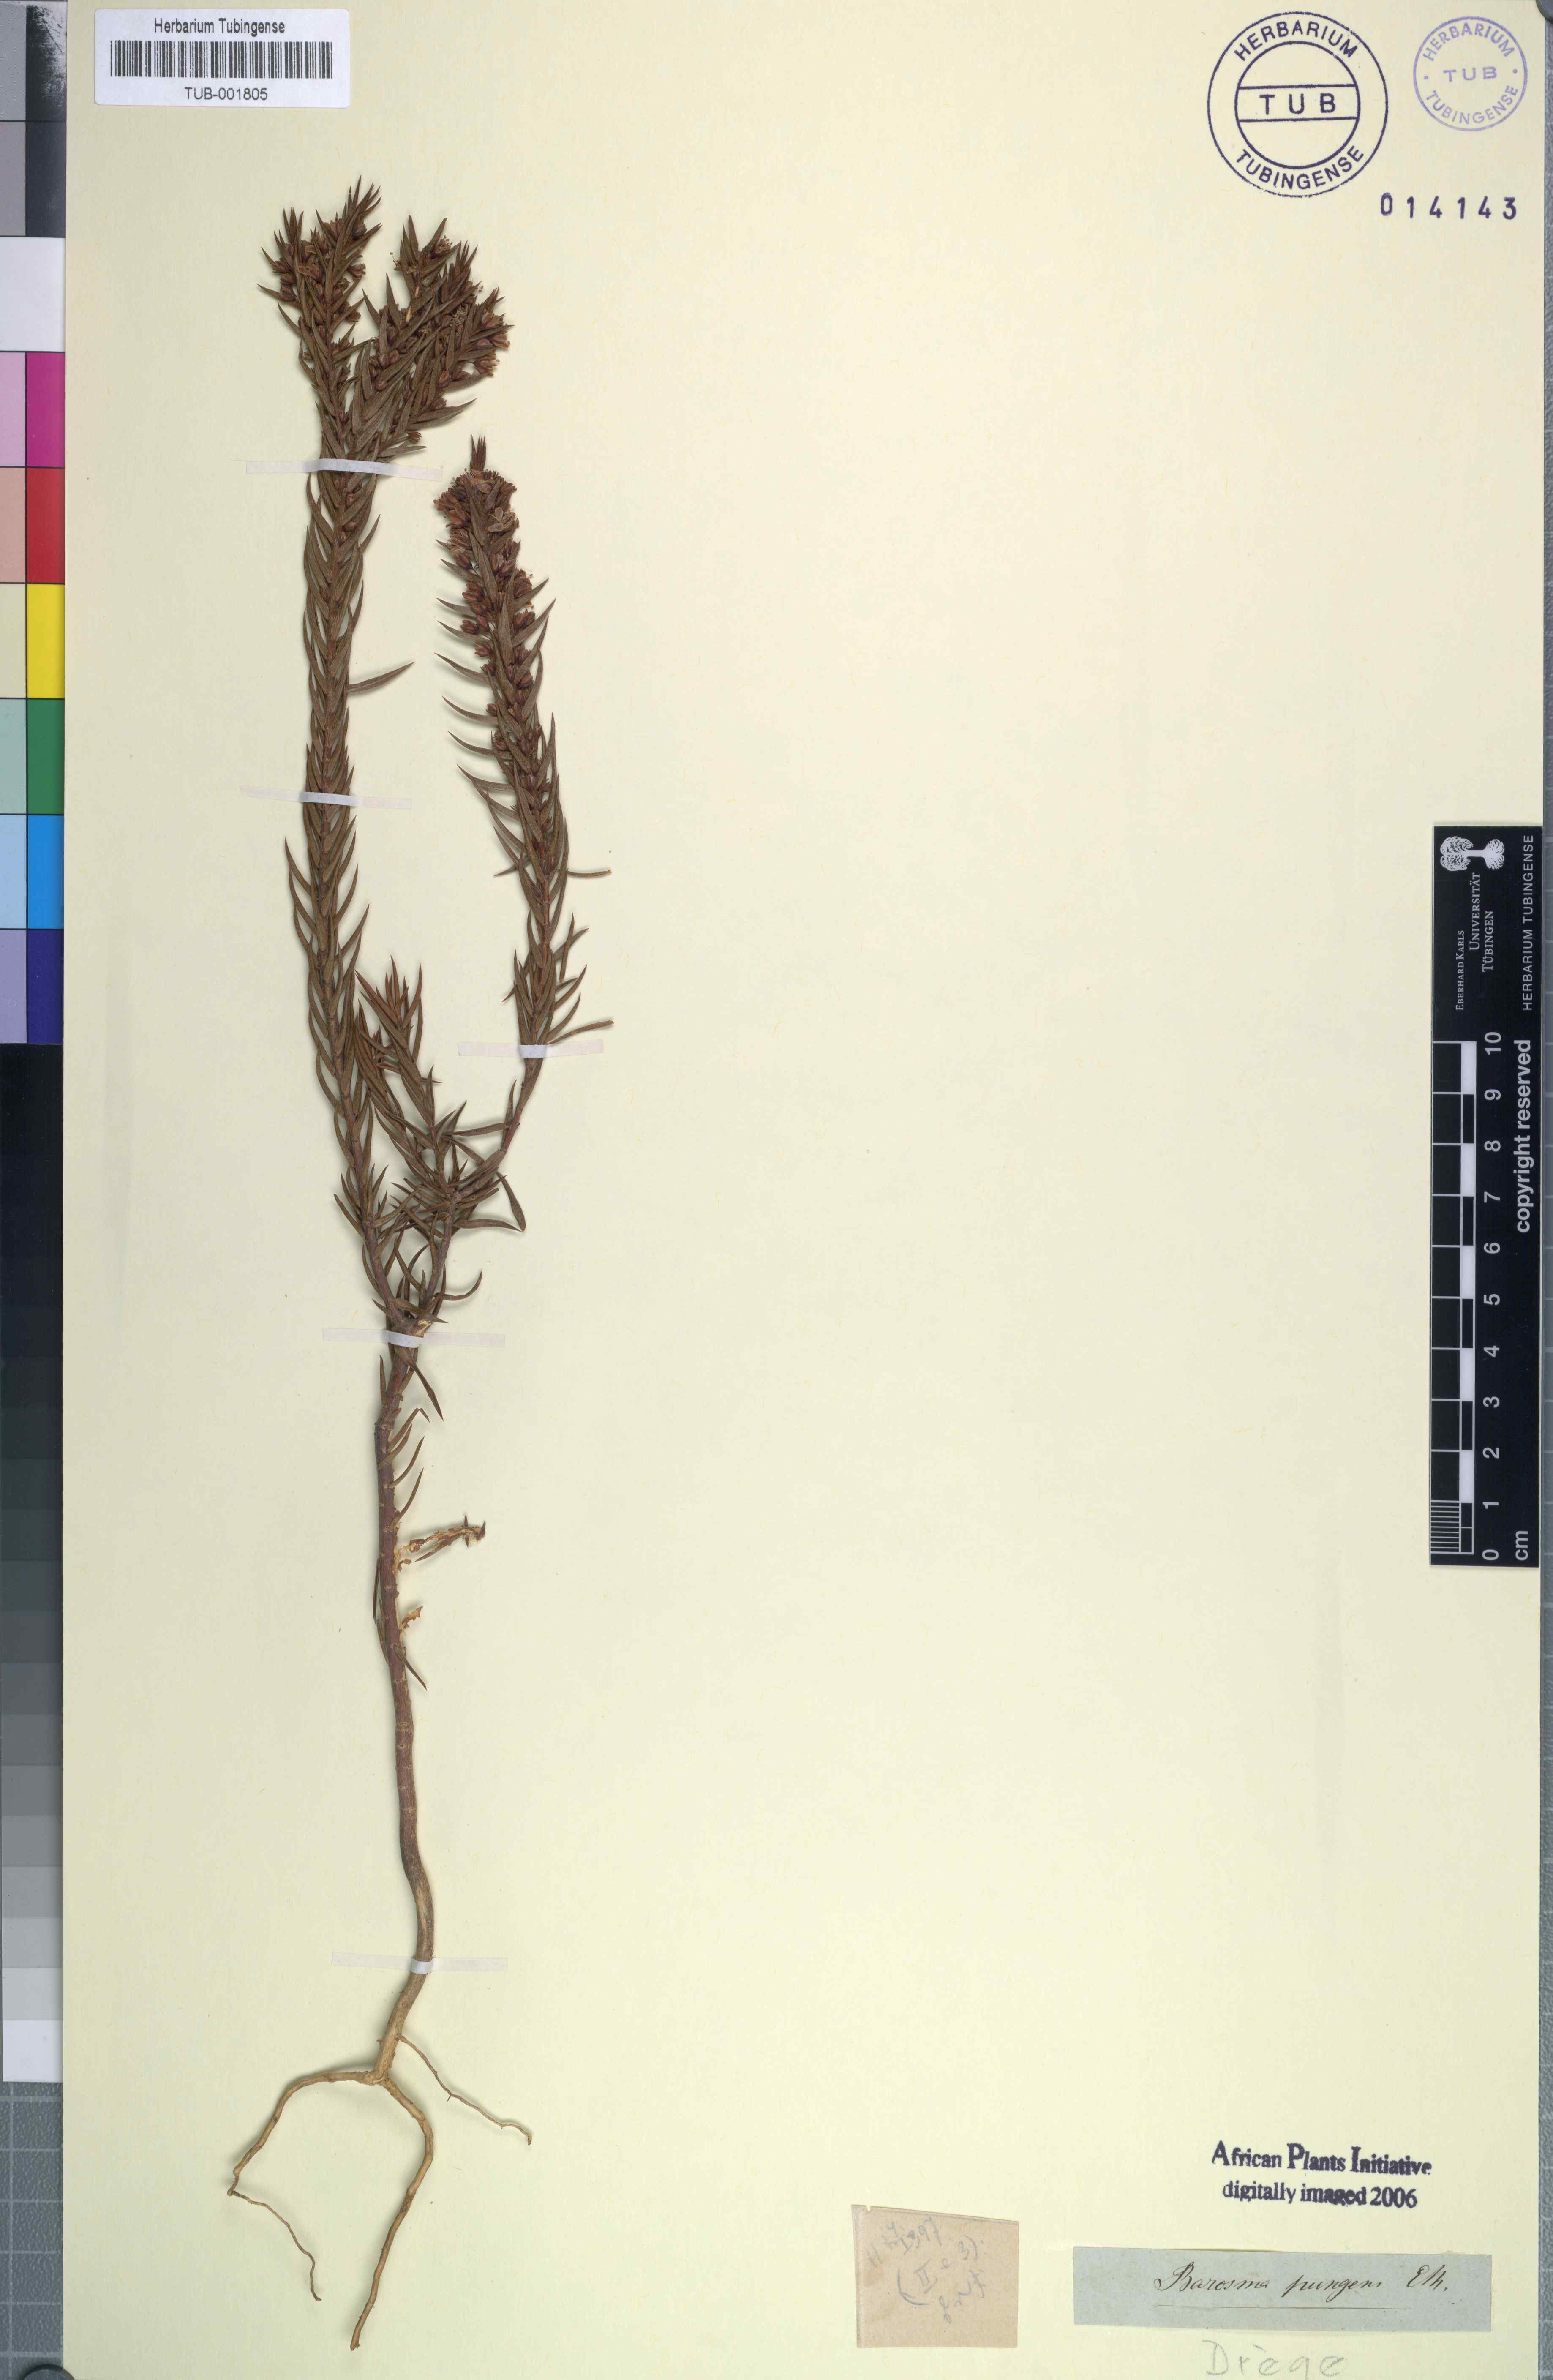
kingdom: Plantae
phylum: Tracheophyta
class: Magnoliopsida
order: Sapindales
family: Rutaceae
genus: Agathosma
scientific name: Agathosma pungens
